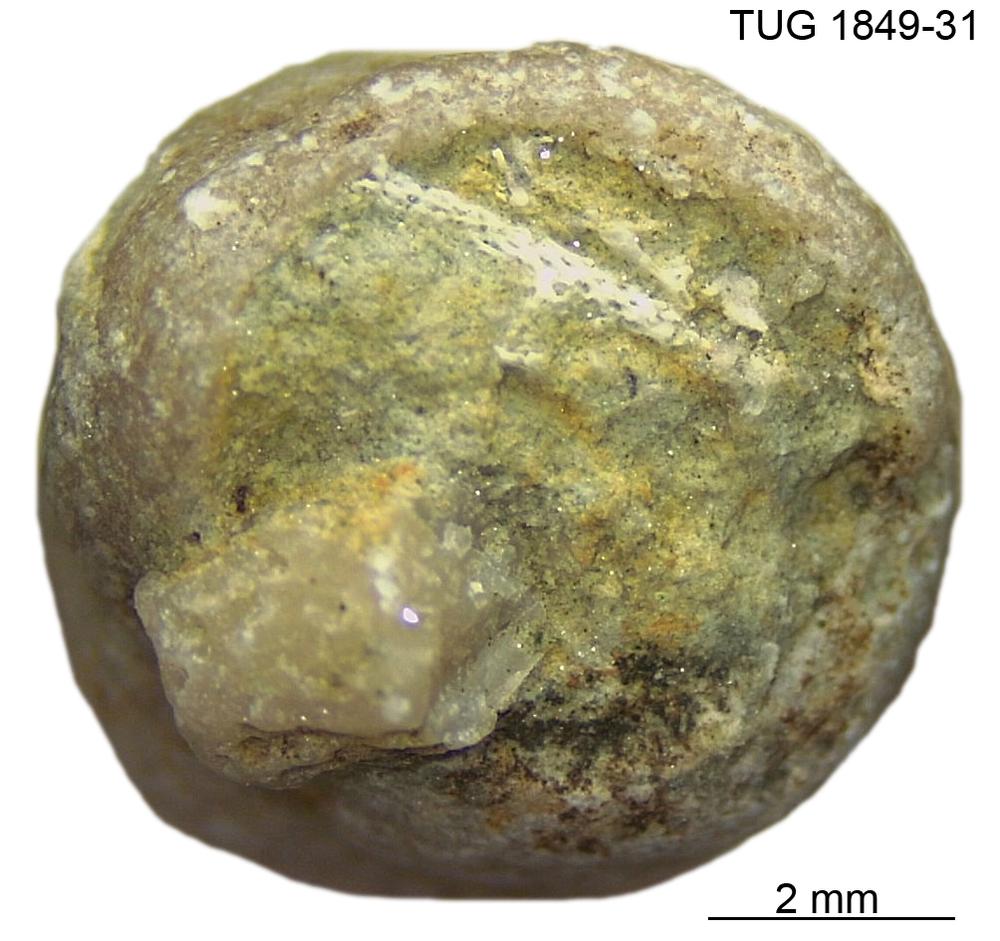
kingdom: Animalia
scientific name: Animalia
